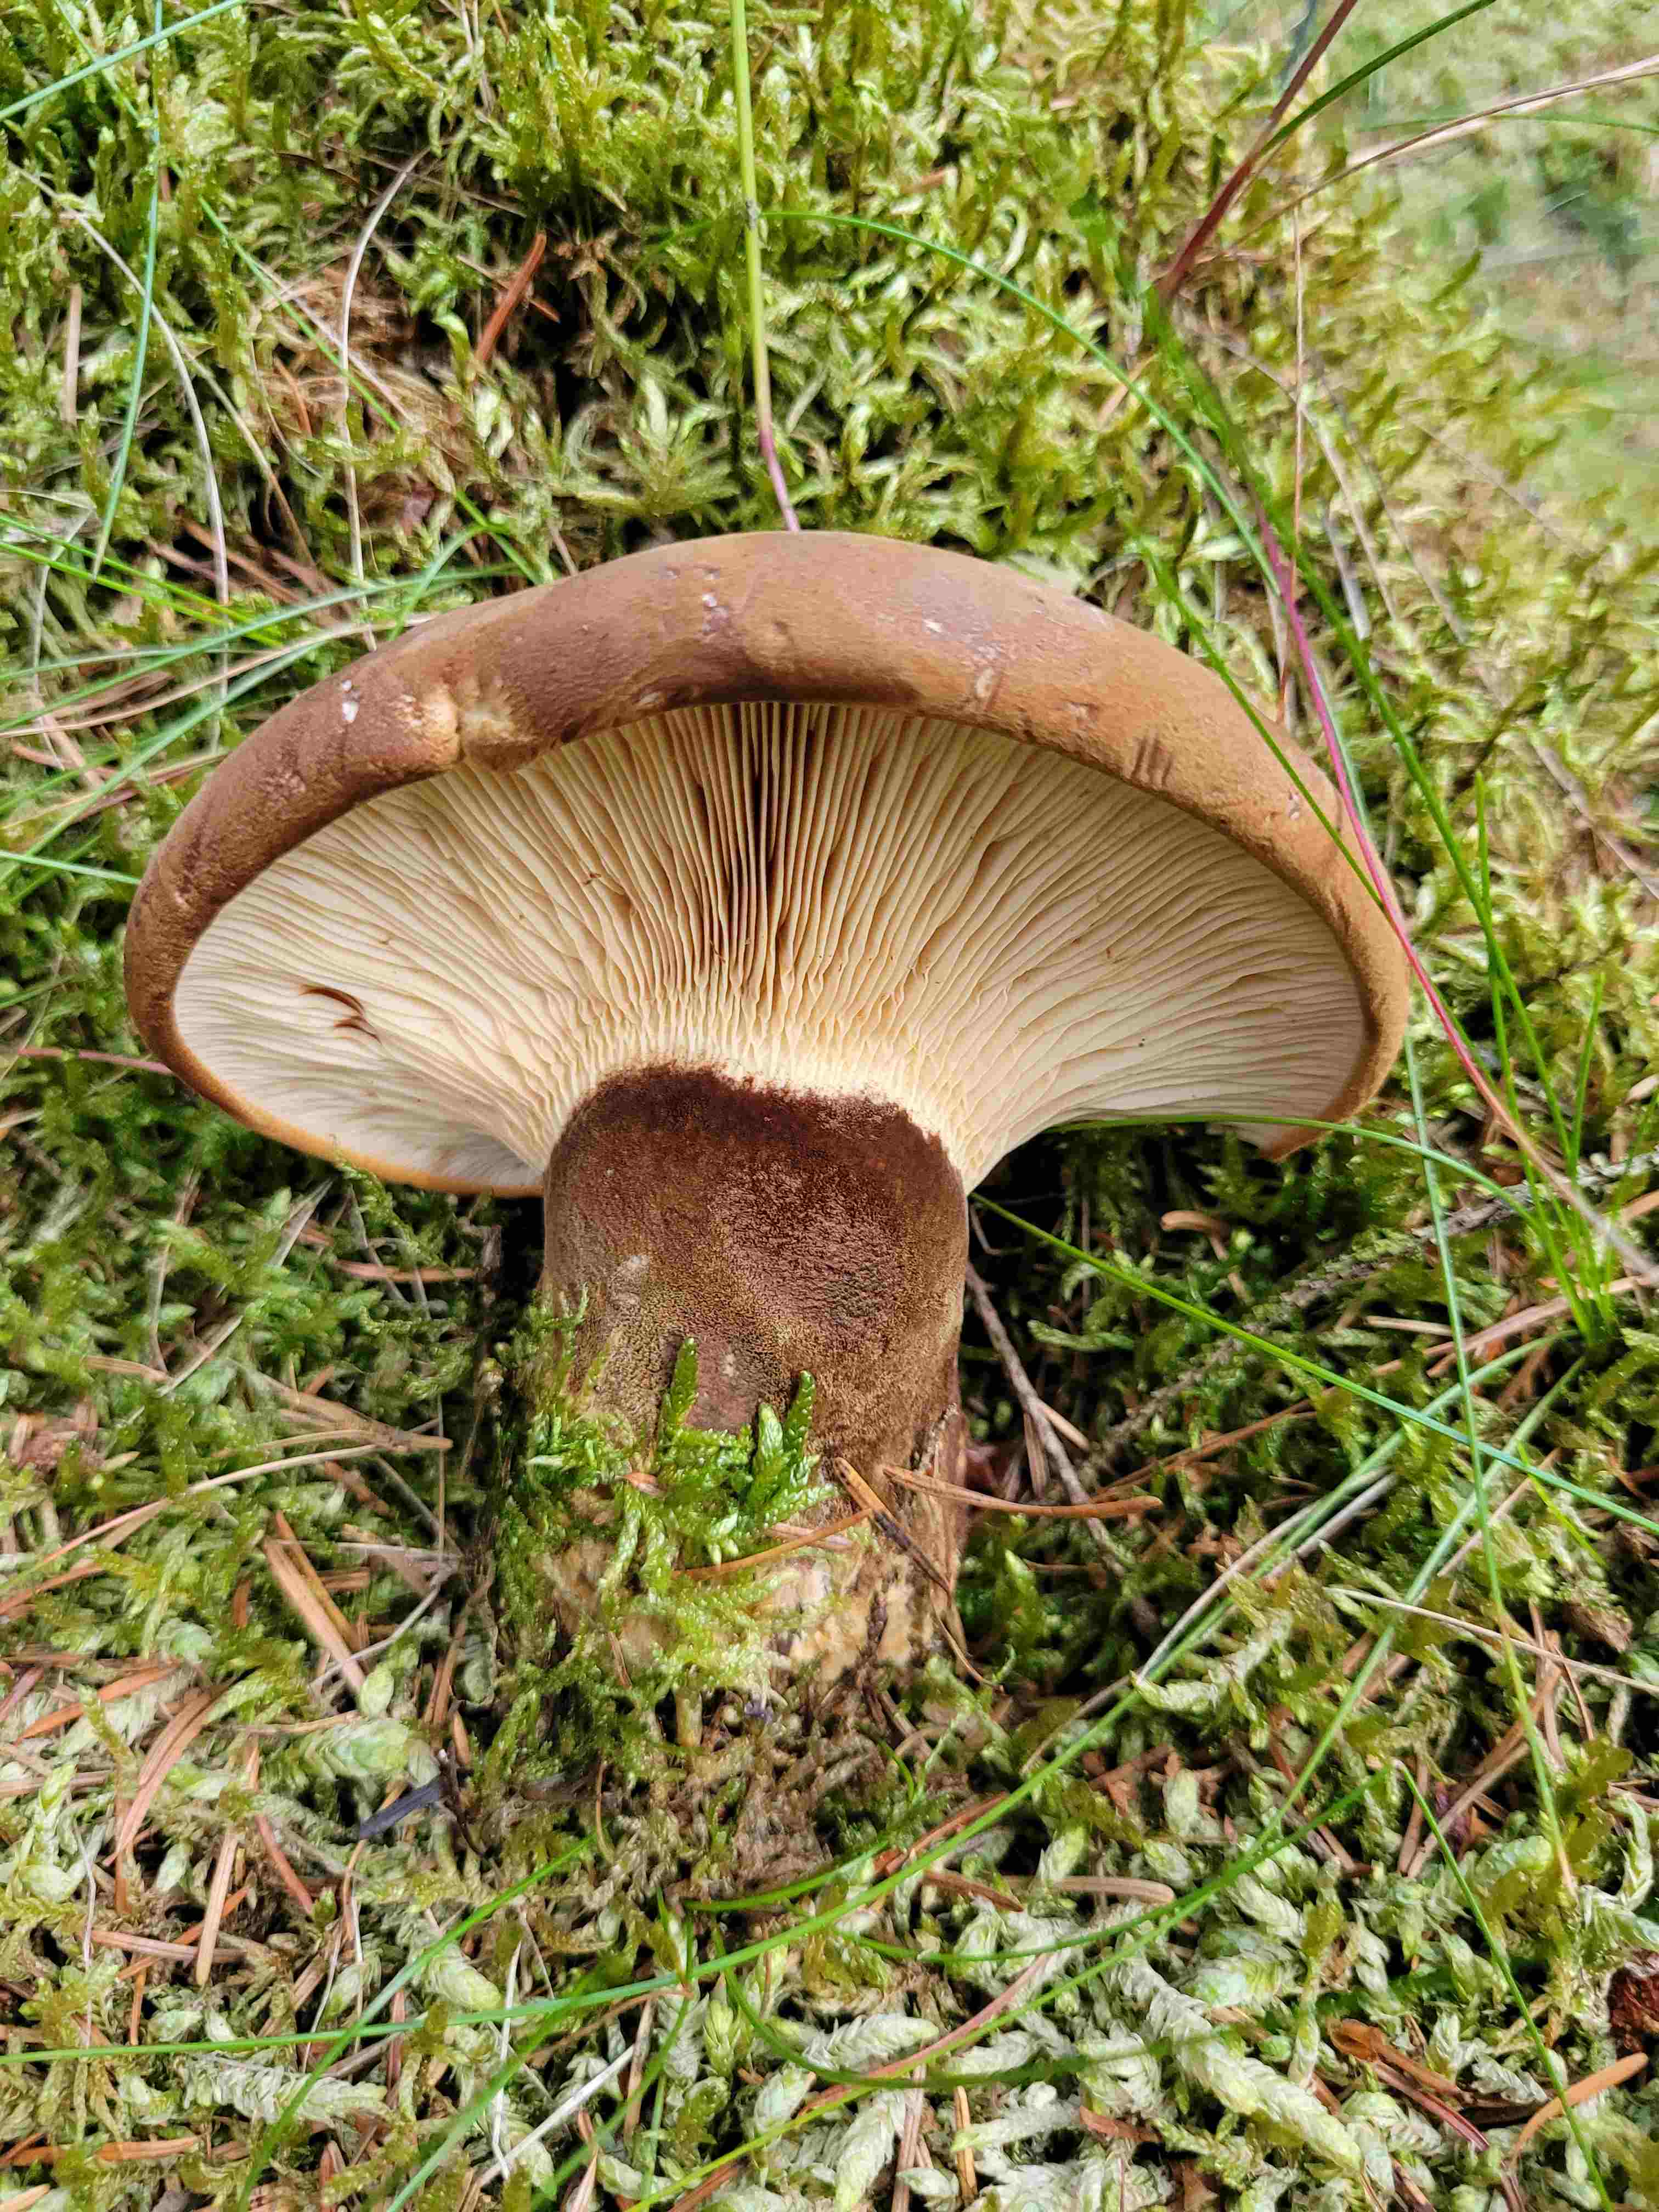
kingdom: Fungi
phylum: Basidiomycota
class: Agaricomycetes
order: Boletales
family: Tapinellaceae
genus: Tapinella
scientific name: Tapinella atrotomentosa
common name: sortfiltet viftesvamp
